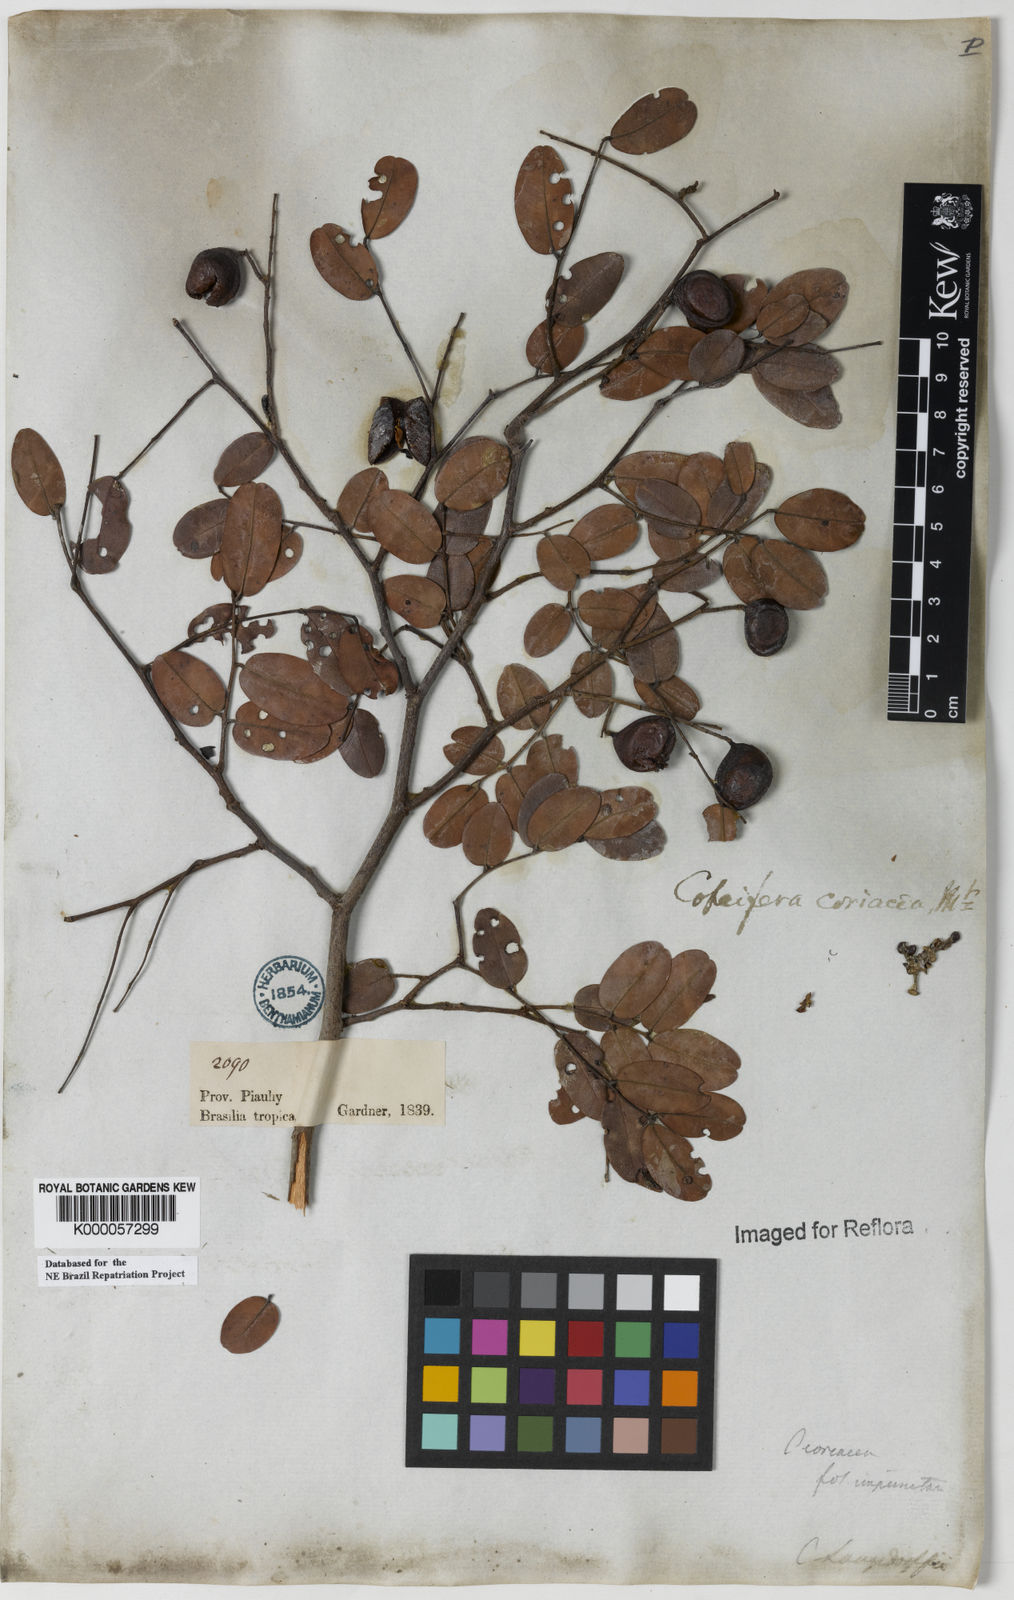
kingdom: Plantae
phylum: Tracheophyta
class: Magnoliopsida
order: Fabales
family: Fabaceae
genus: Copaifera
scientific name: Copaifera coriacea
